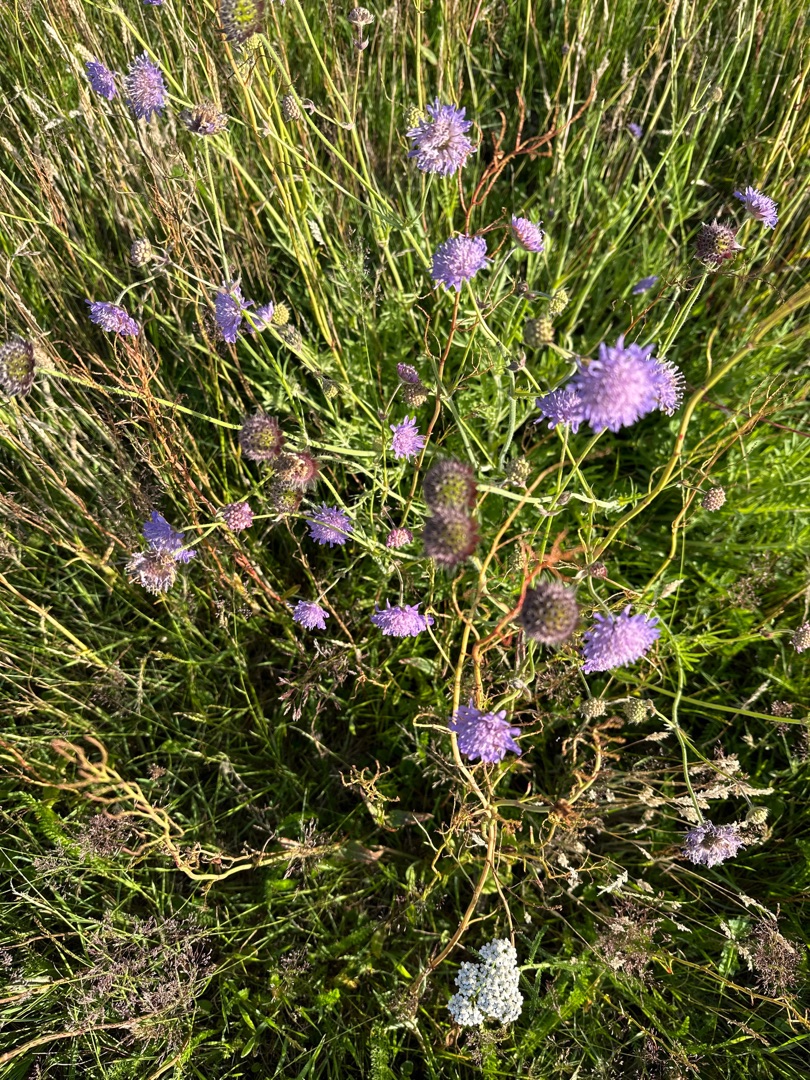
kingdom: Plantae
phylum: Tracheophyta
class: Magnoliopsida
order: Dipsacales
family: Caprifoliaceae
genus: Knautia
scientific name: Knautia arvensis
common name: Blåhat
